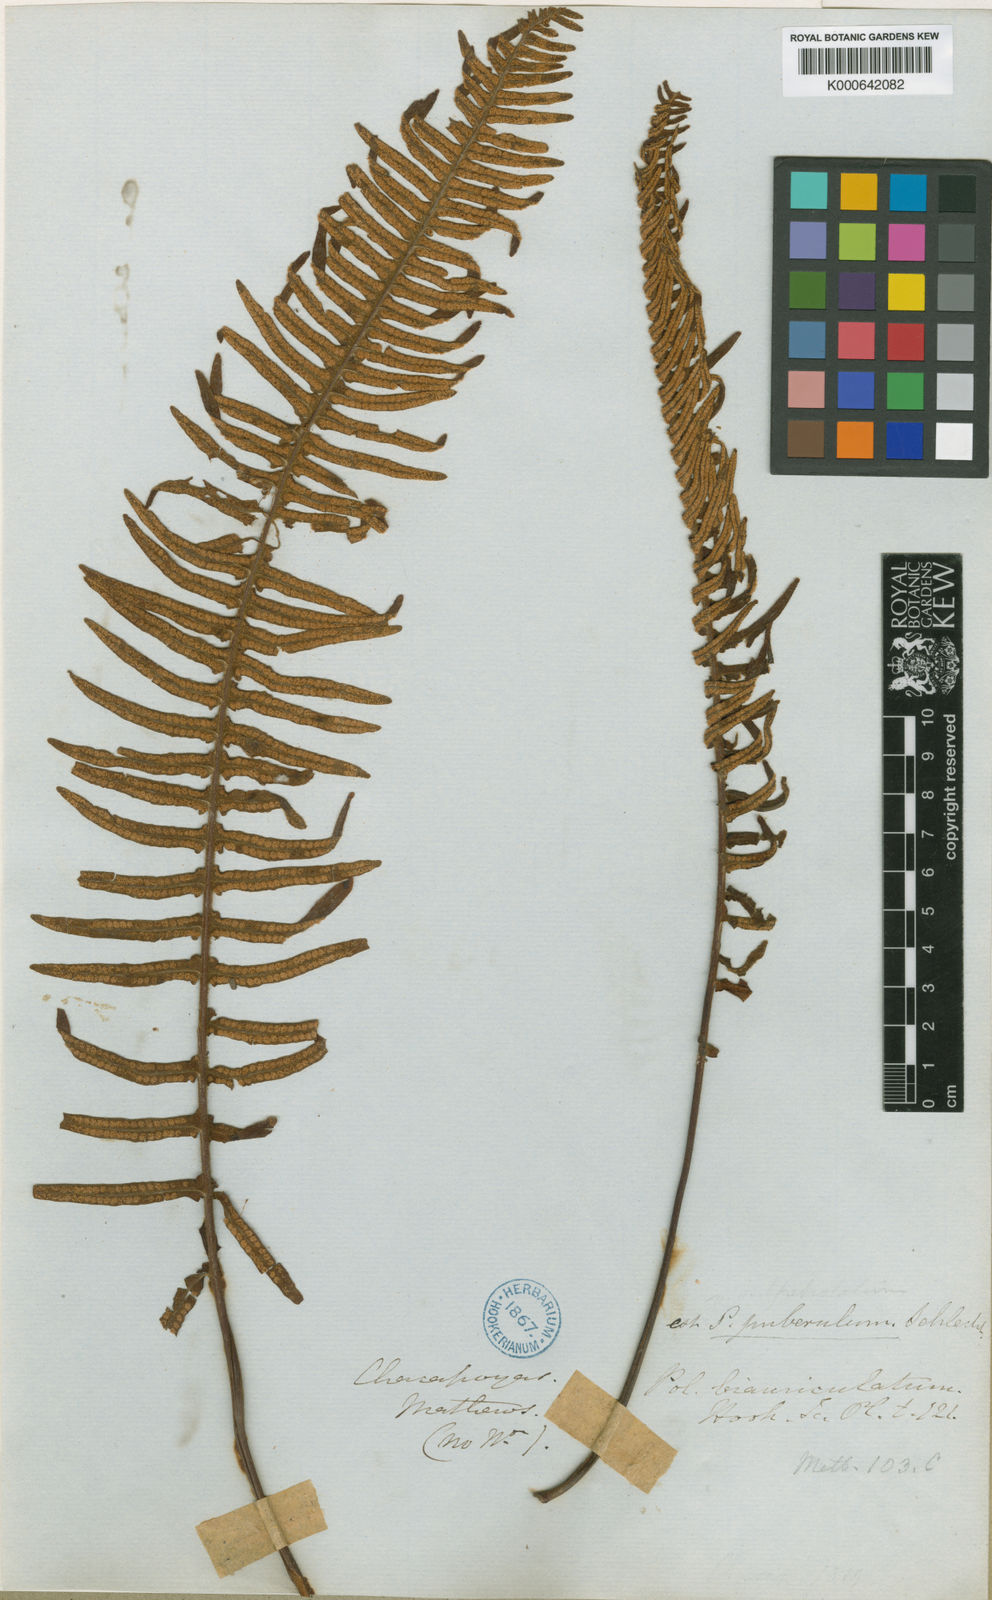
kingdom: Plantae
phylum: Tracheophyta
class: Polypodiopsida
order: Polypodiales
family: Polypodiaceae
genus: Serpocaulon
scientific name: Serpocaulon sessilifolium
